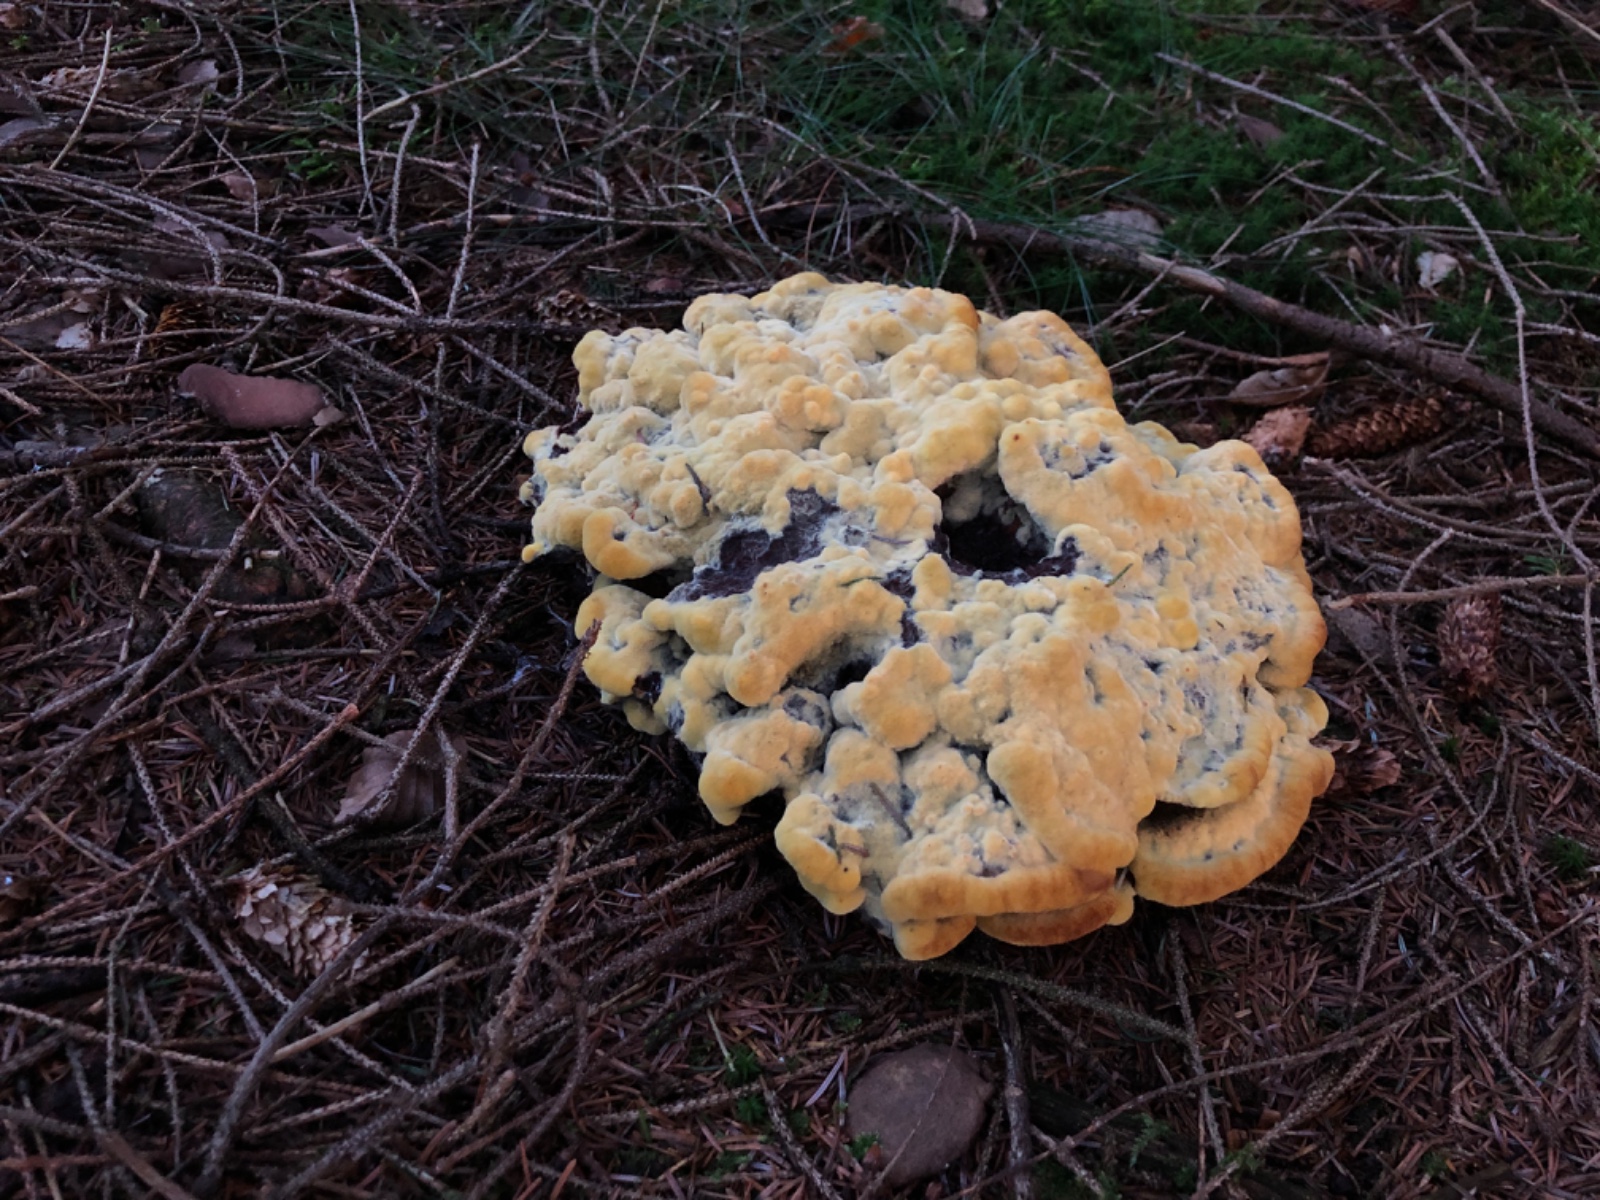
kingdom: Fungi
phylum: Basidiomycota
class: Agaricomycetes
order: Polyporales
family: Laetiporaceae
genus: Phaeolus
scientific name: Phaeolus schweinitzii
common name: brunporesvamp
